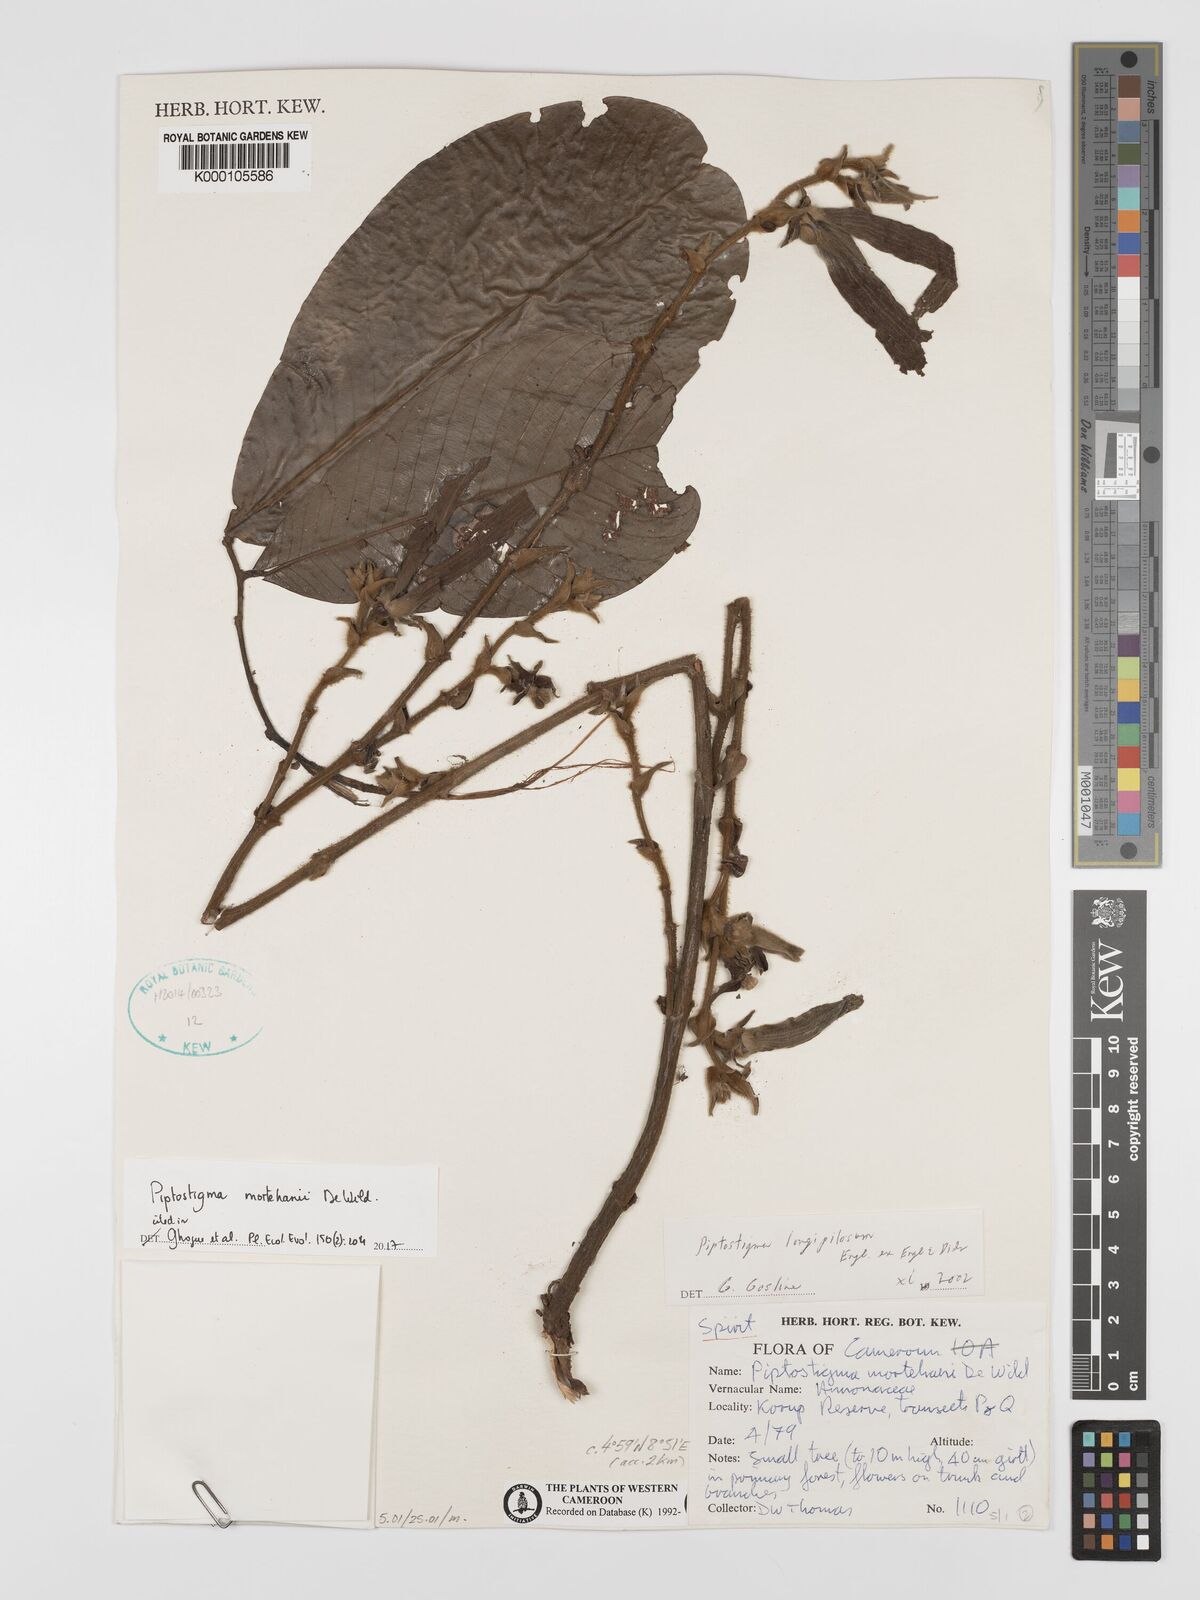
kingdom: Plantae
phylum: Tracheophyta
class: Magnoliopsida
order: Magnoliales
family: Annonaceae
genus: Piptostigma
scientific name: Piptostigma
